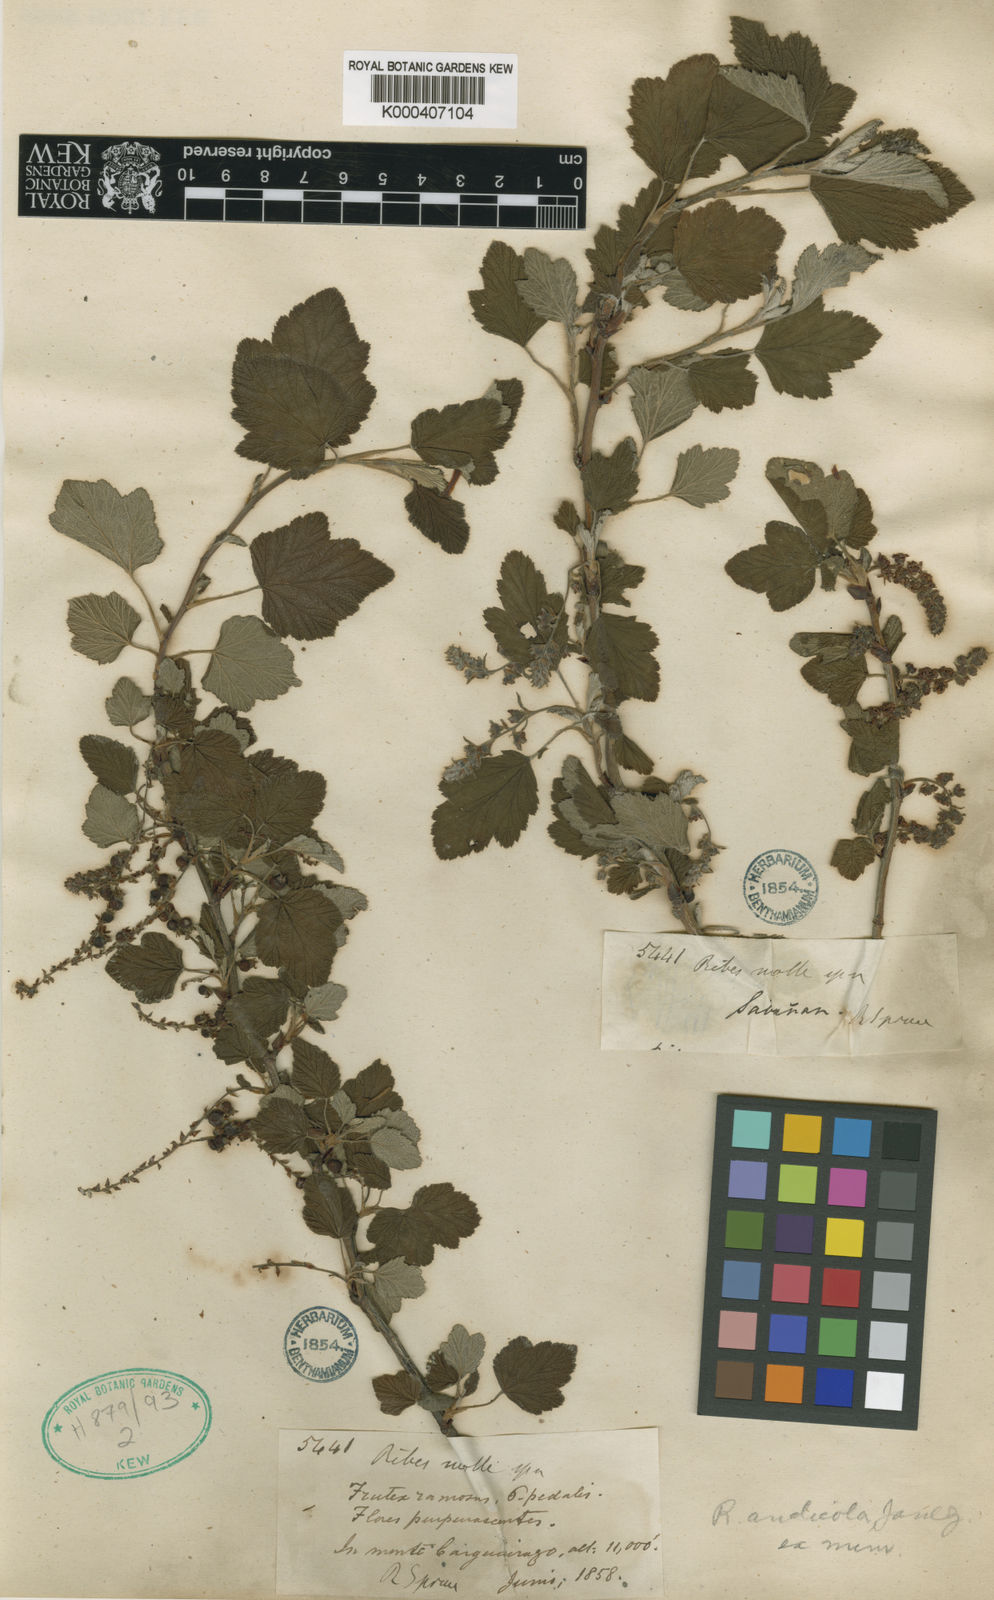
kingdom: Plantae
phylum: Tracheophyta
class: Magnoliopsida
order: Saxifragales
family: Grossulariaceae
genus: Ribes
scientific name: Ribes andicola
